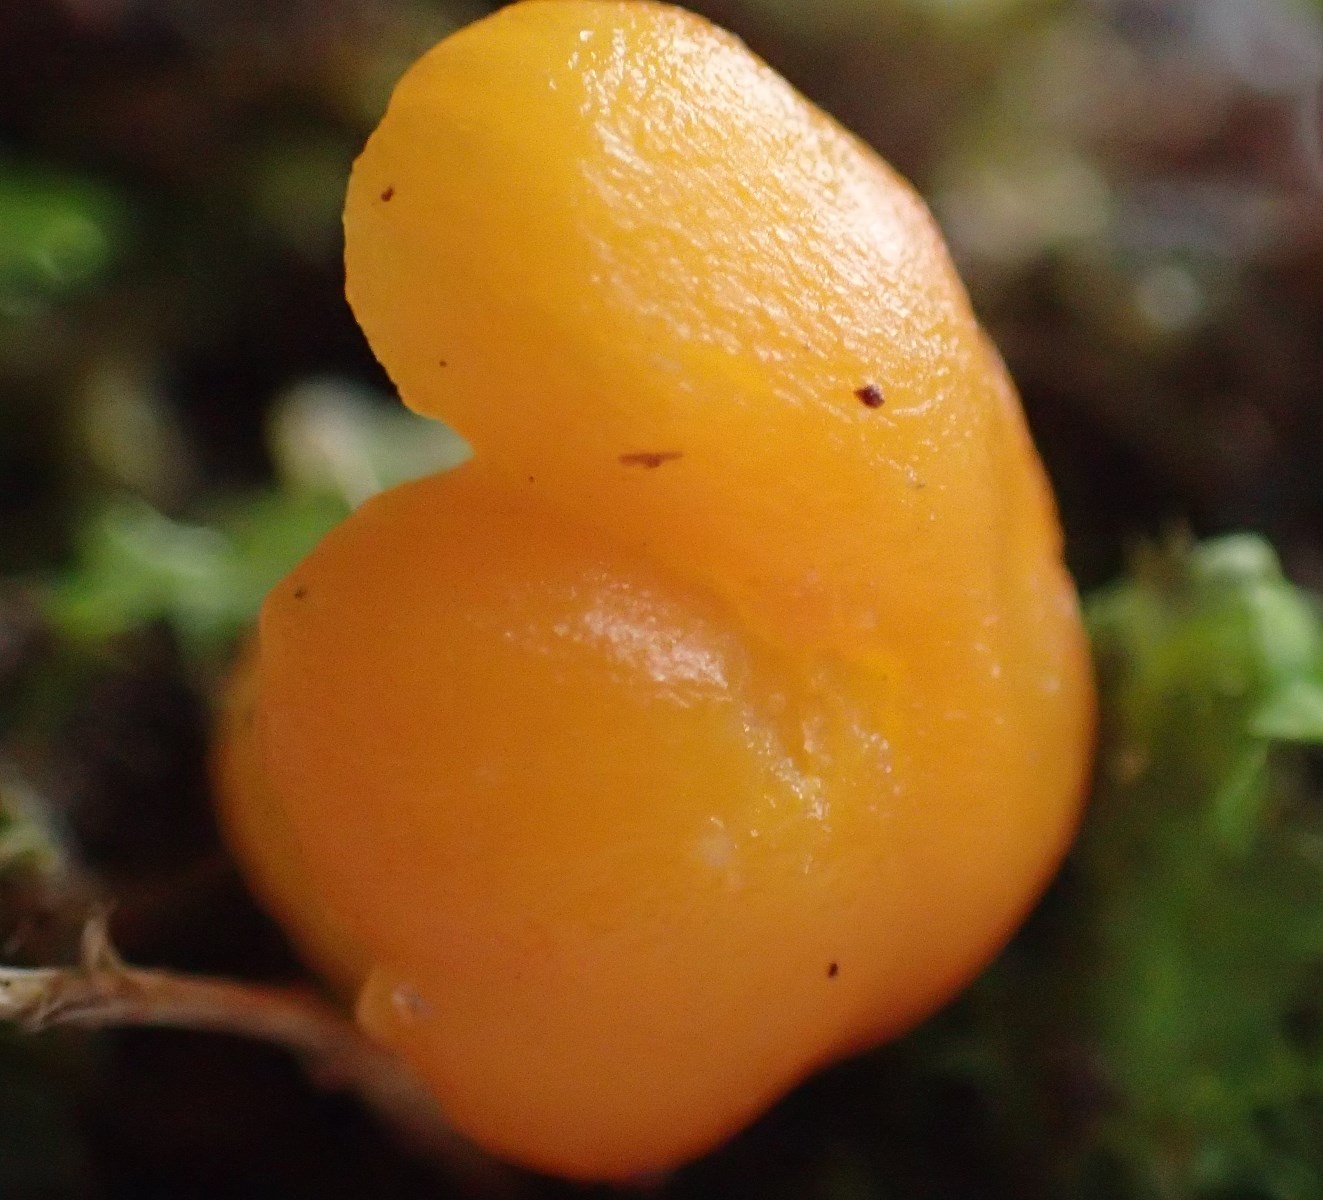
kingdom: Fungi
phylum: Basidiomycota
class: Agaricomycetes
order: Agaricales
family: Hygrophoraceae
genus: Hygrocybe
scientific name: Hygrocybe ceracea
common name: voksgul vokshat
